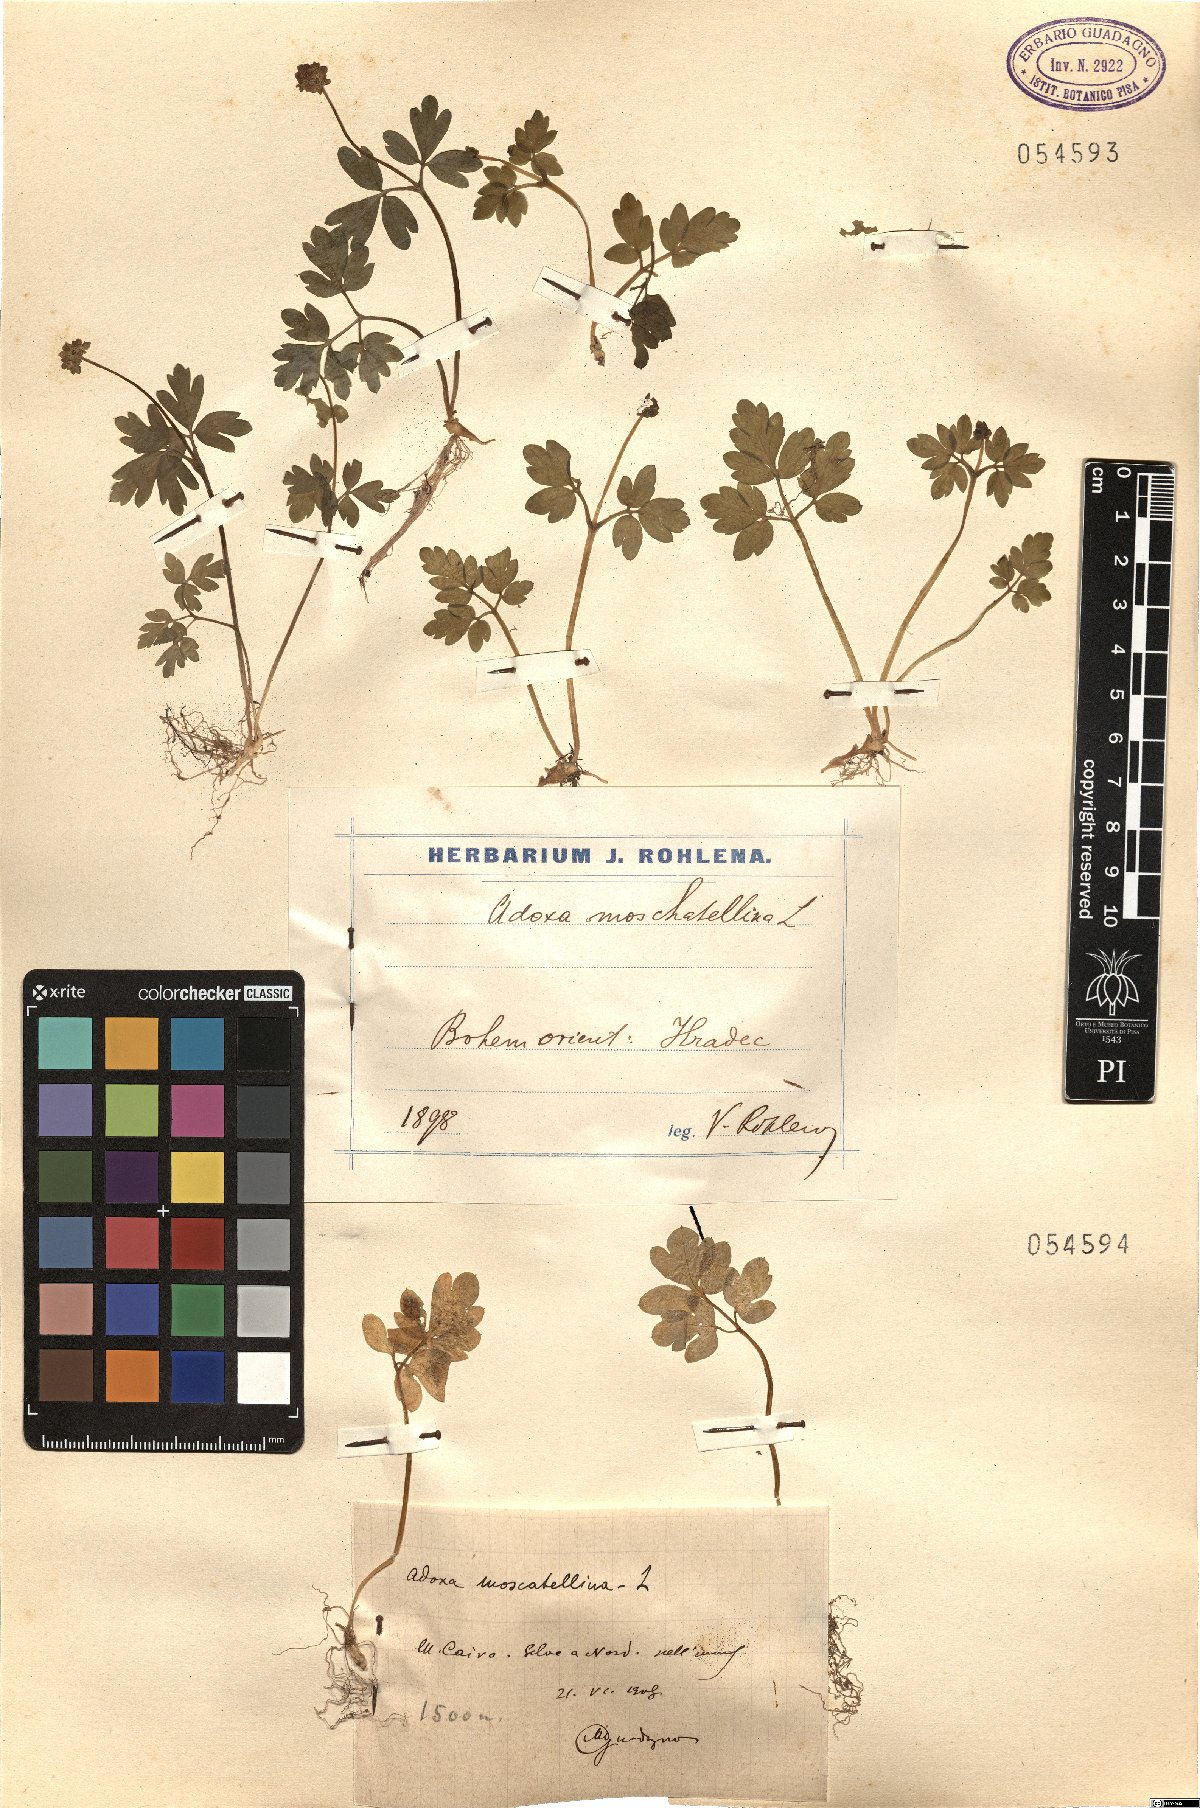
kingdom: Plantae
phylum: Tracheophyta
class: Magnoliopsida
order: Dipsacales
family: Viburnaceae
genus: Adoxa
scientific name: Adoxa moschatellina
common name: Moschatel
